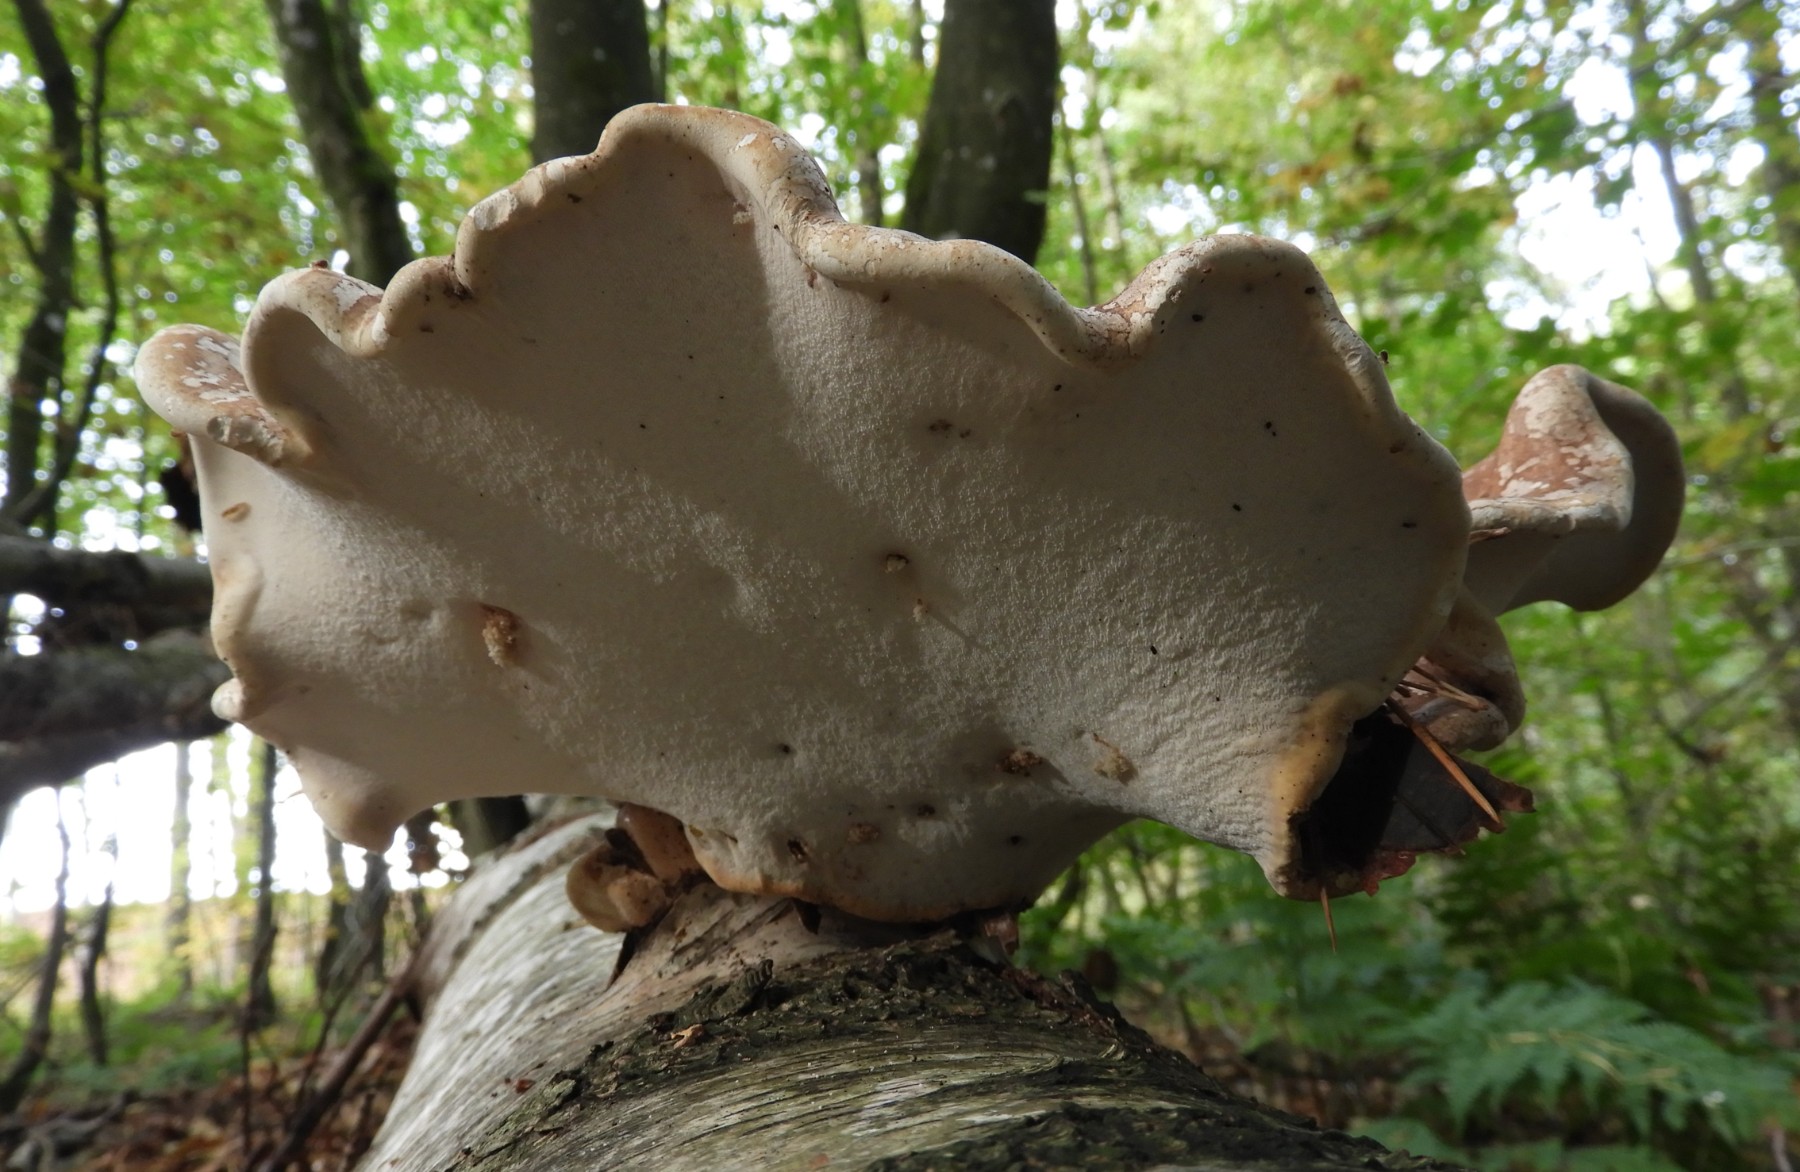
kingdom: Fungi
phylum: Basidiomycota
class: Agaricomycetes
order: Polyporales
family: Fomitopsidaceae
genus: Fomitopsis
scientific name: Fomitopsis betulina
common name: birkeporesvamp
